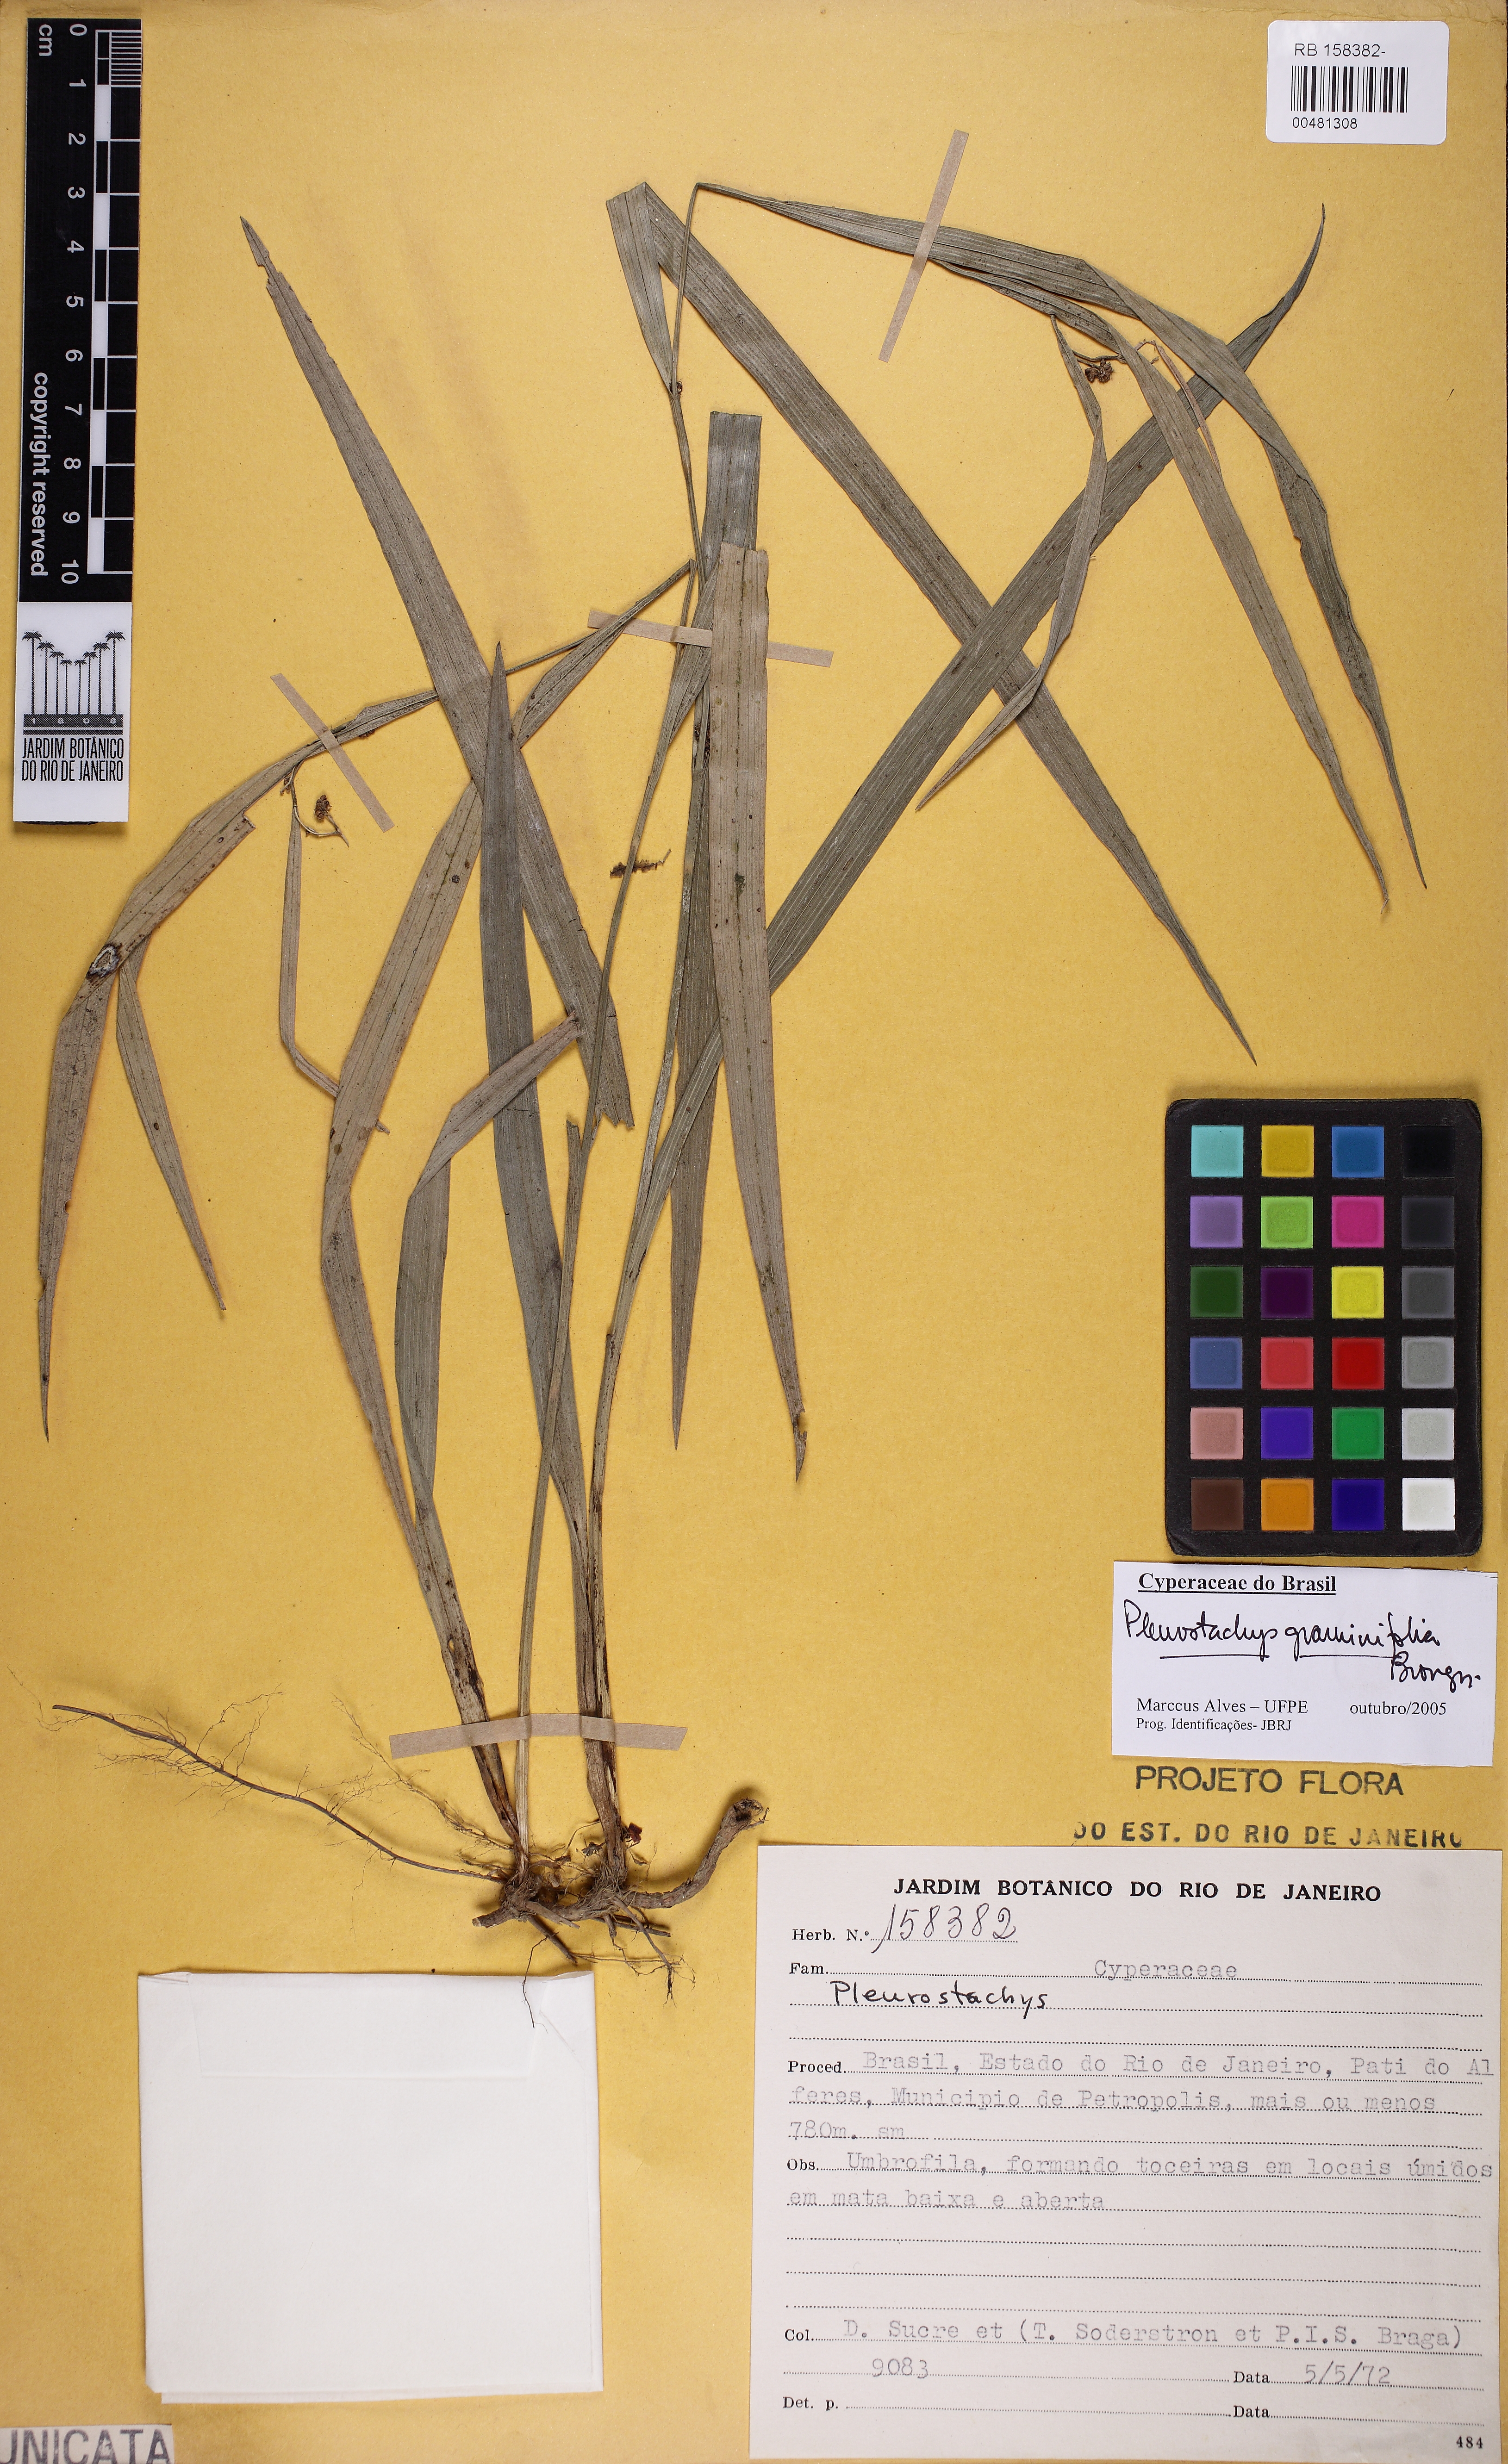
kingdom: Plantae
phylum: Tracheophyta
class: Liliopsida
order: Poales
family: Cyperaceae
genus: Rhynchospora
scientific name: Rhynchospora pilulifera
